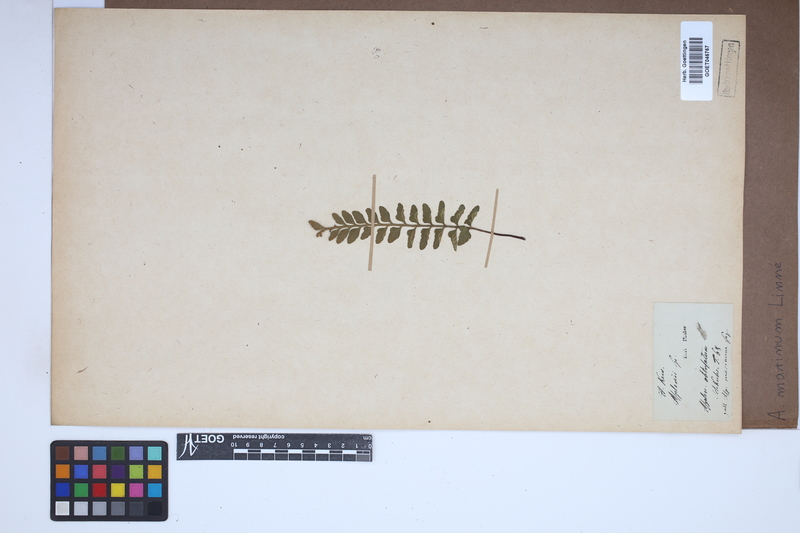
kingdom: Plantae
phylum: Tracheophyta
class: Polypodiopsida
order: Polypodiales
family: Aspleniaceae
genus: Asplenium
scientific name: Asplenium marinum
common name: Sea spleenwort
